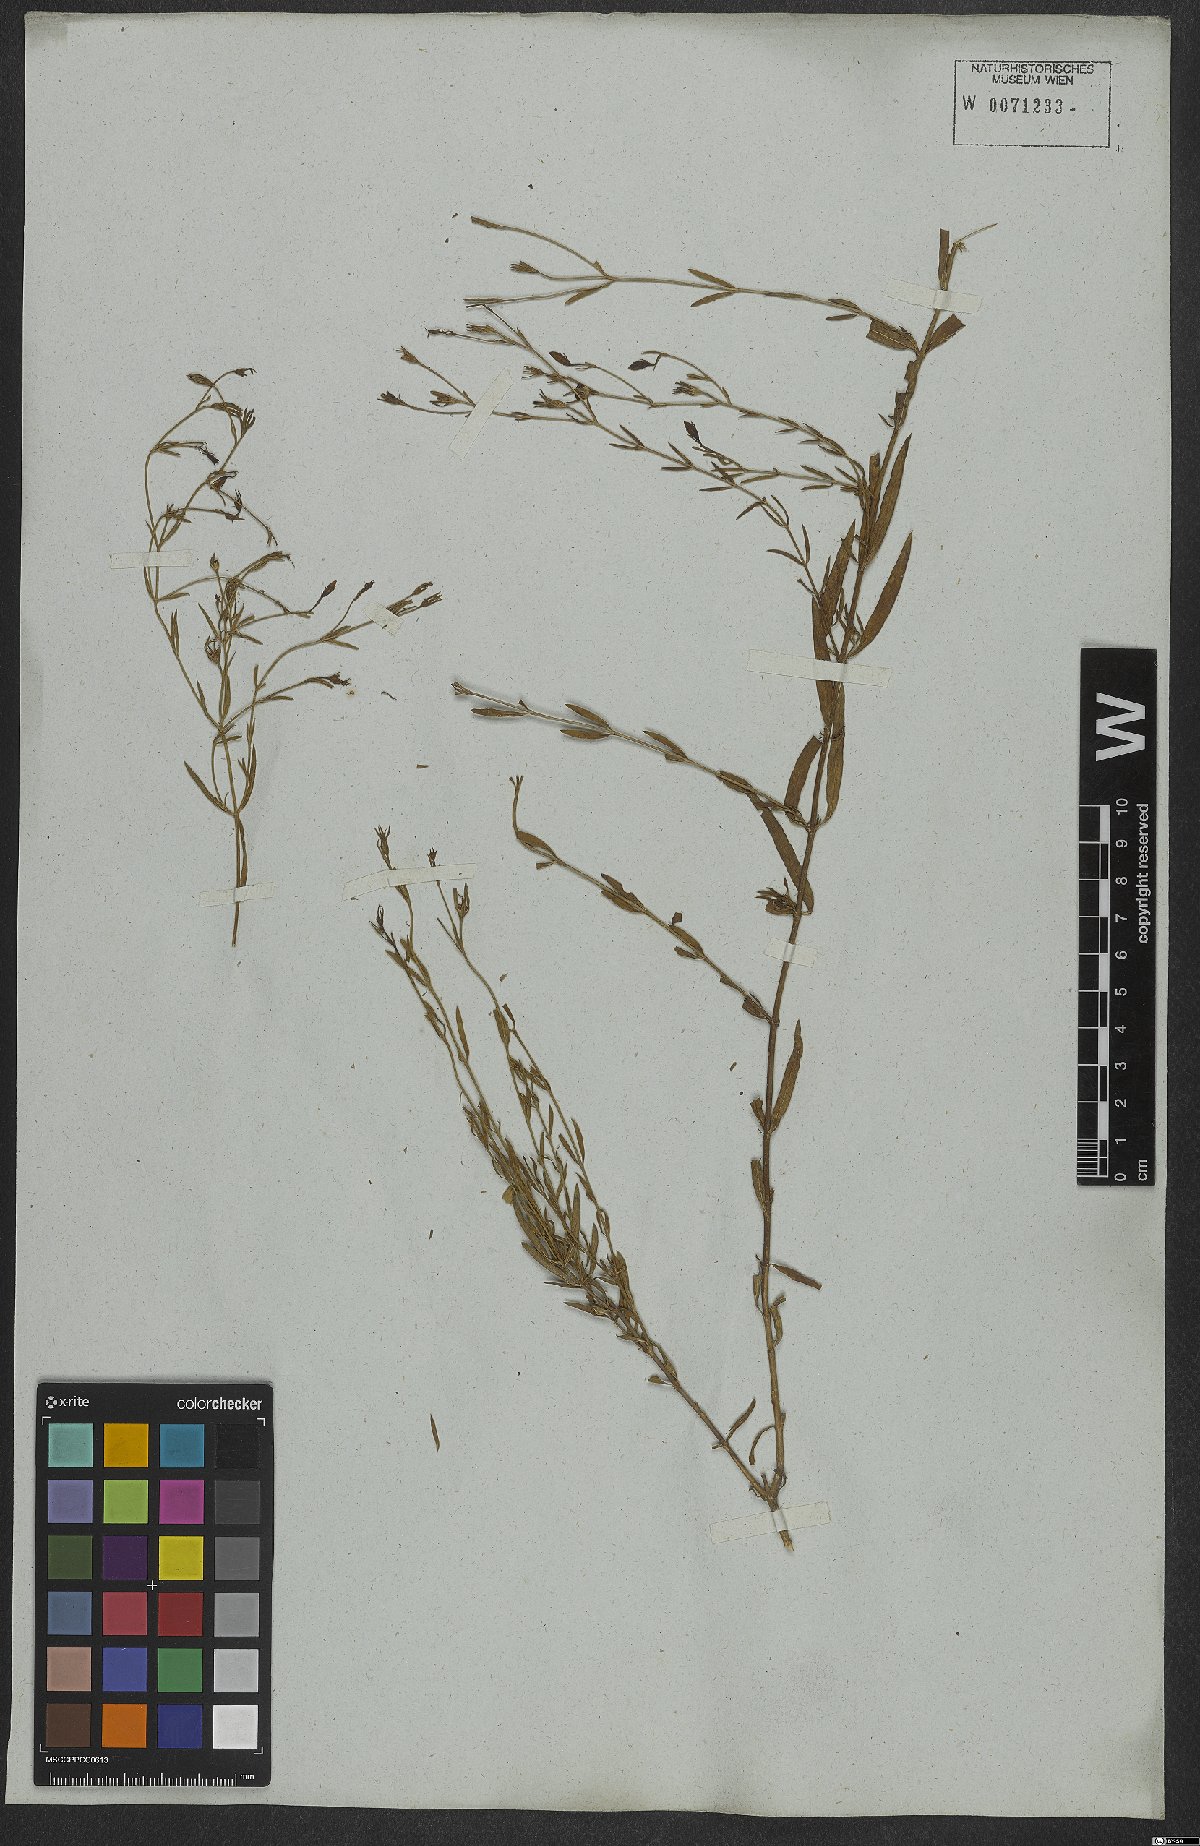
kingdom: Plantae
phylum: Tracheophyta
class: Magnoliopsida
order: Lamiales
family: Oleaceae
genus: Menodora
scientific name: Menodora integrifolia
